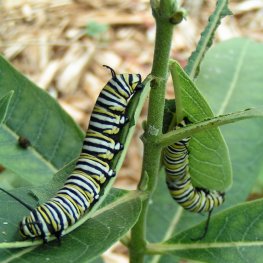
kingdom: Animalia
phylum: Arthropoda
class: Insecta
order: Lepidoptera
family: Nymphalidae
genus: Danaus
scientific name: Danaus plexippus
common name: Monarch
